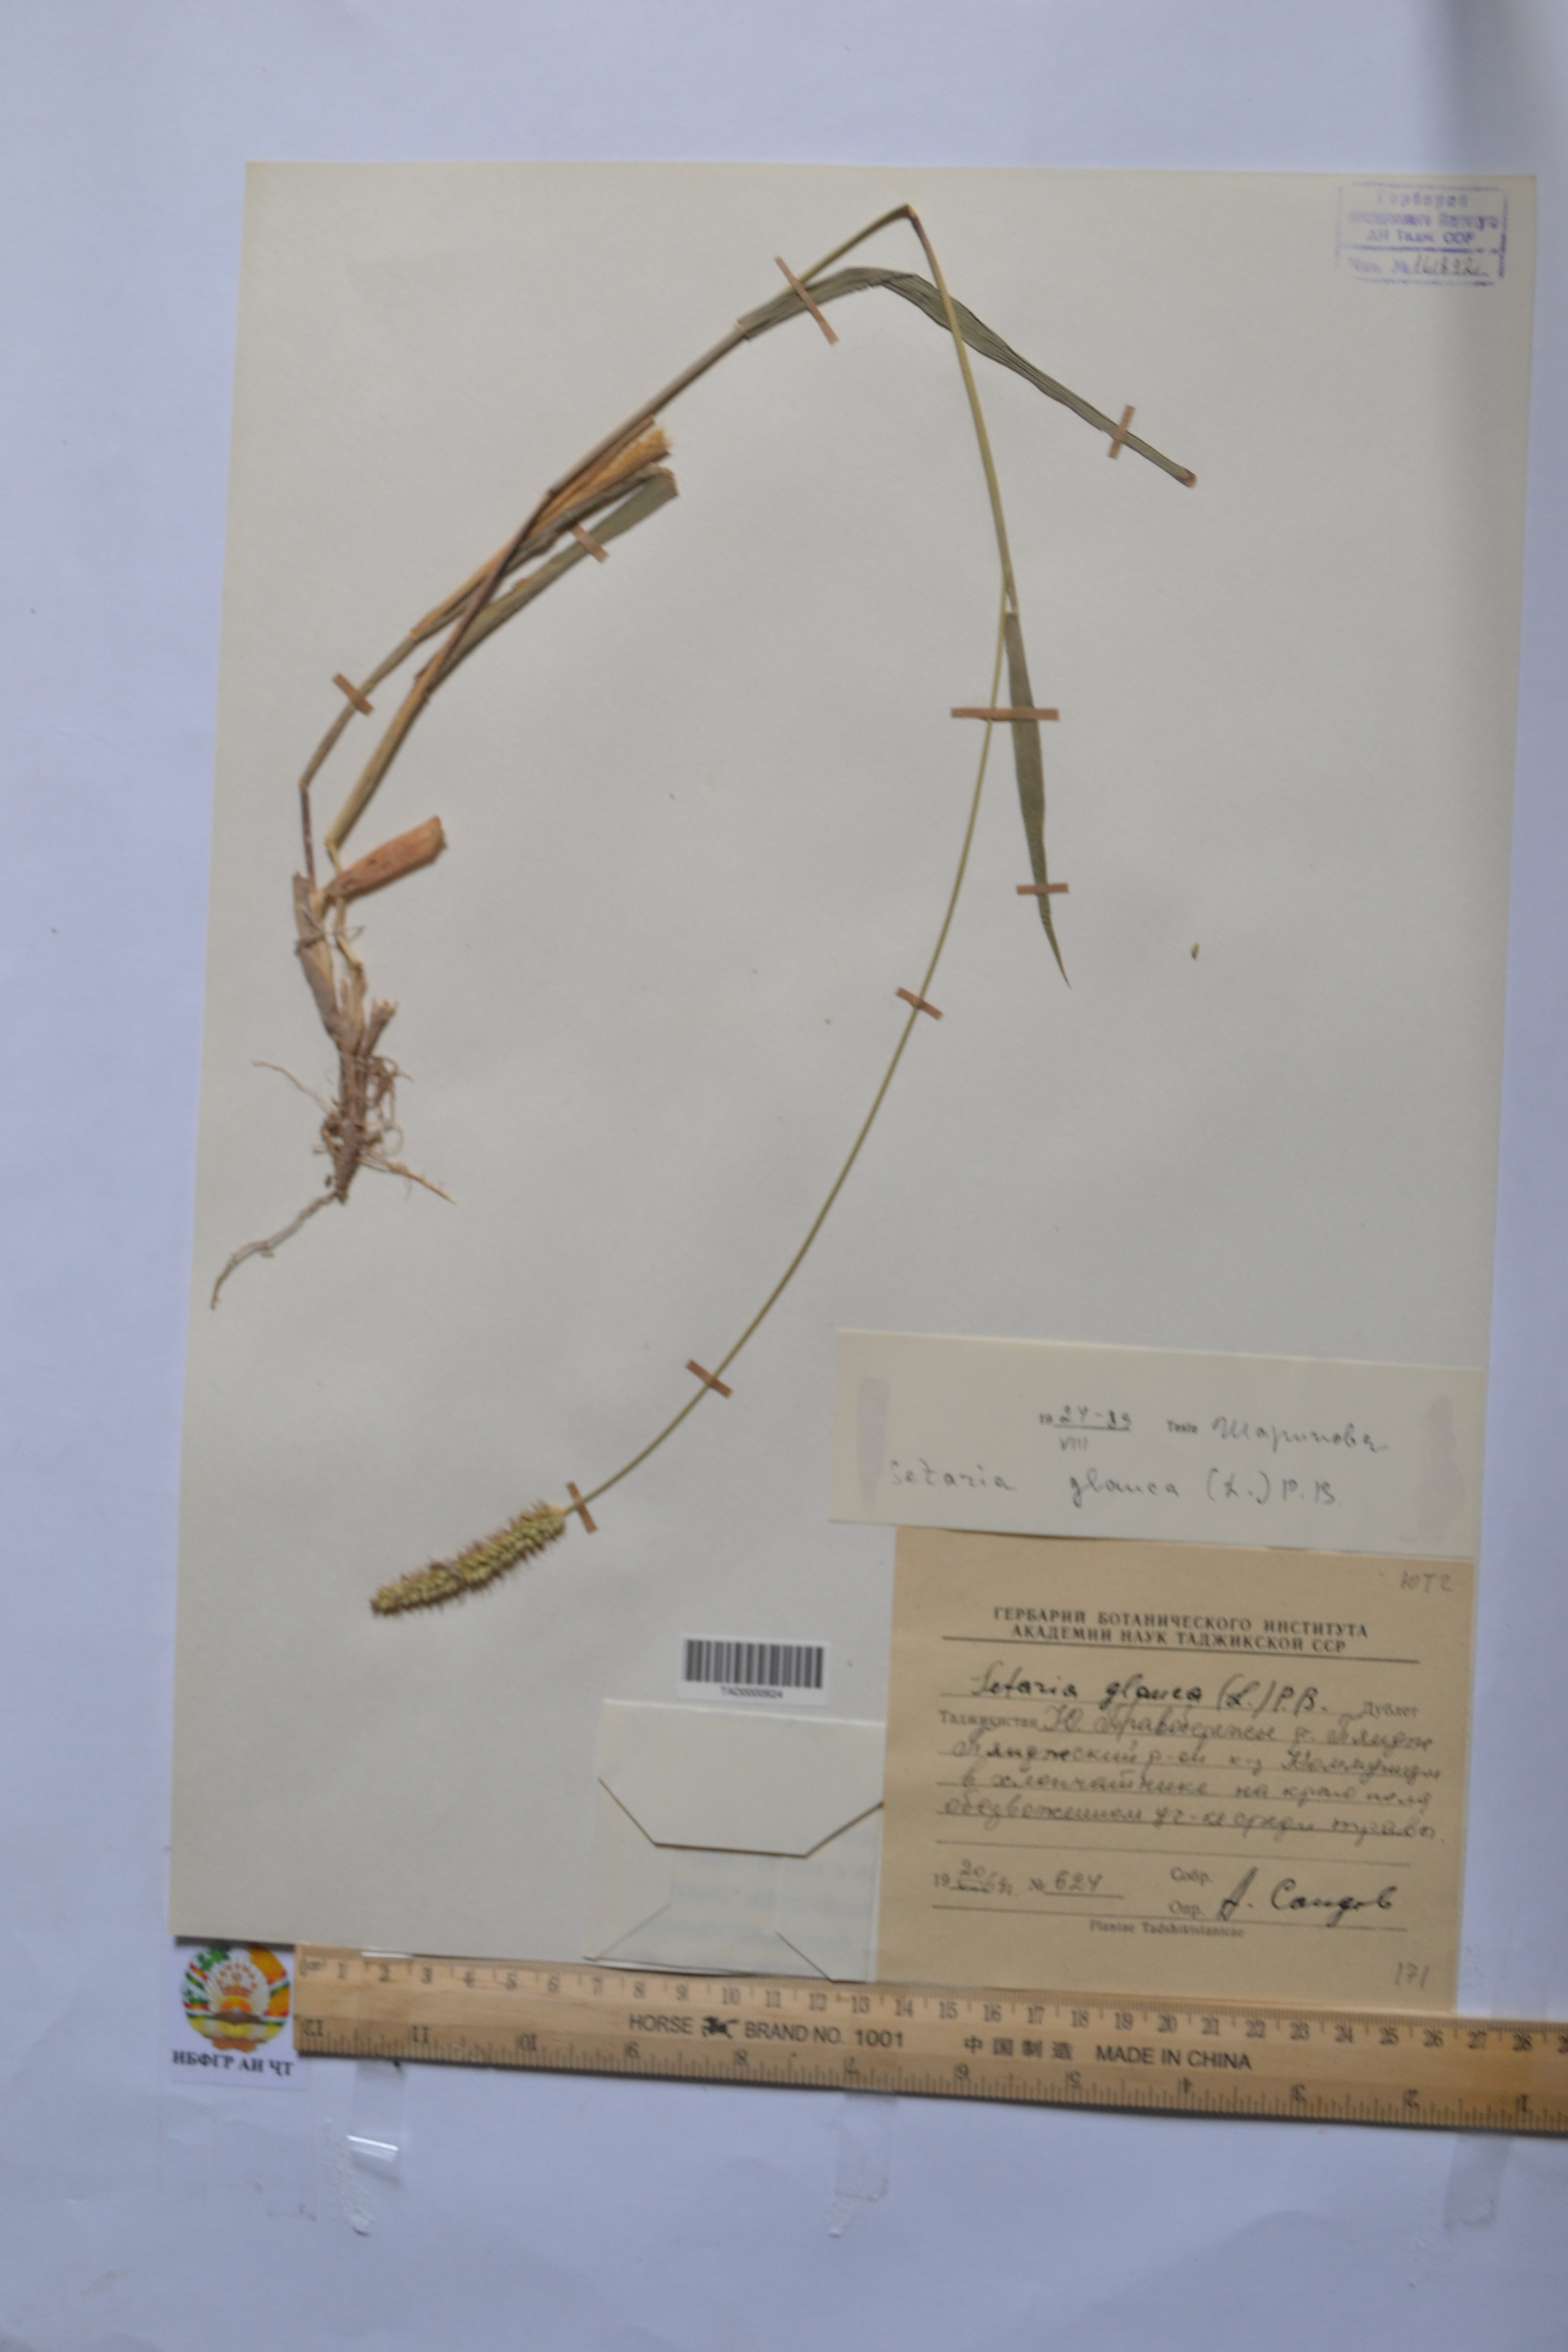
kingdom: Plantae
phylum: Tracheophyta
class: Liliopsida
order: Poales
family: Poaceae
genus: Cenchrus
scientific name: Cenchrus americanus
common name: Pearl millet
